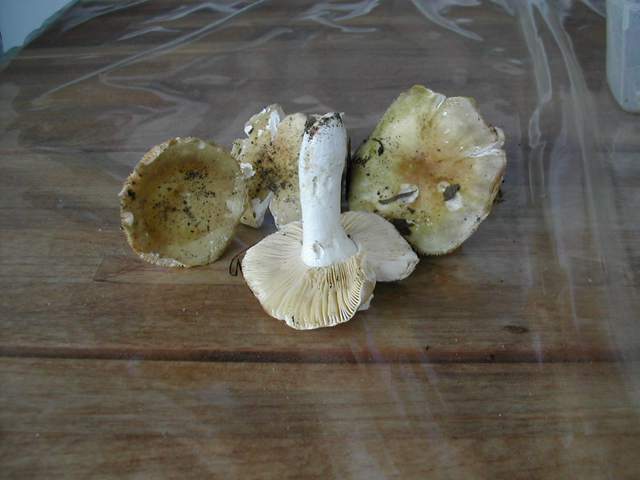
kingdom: Fungi
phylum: Basidiomycota
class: Agaricomycetes
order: Russulales
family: Russulaceae
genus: Russula
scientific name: Russula fulvograminea
